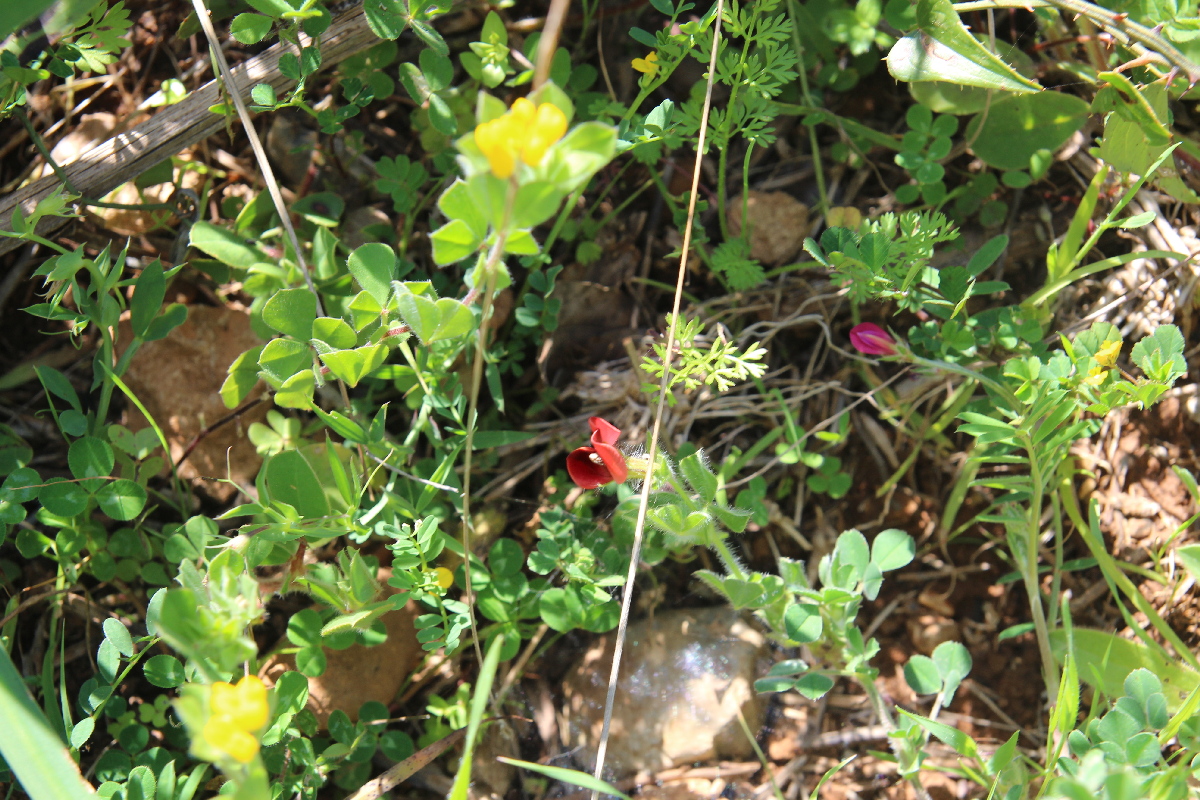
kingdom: Plantae
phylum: Tracheophyta
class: Magnoliopsida
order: Fabales
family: Fabaceae
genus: Lotus
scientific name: Lotus tetragonolobus
